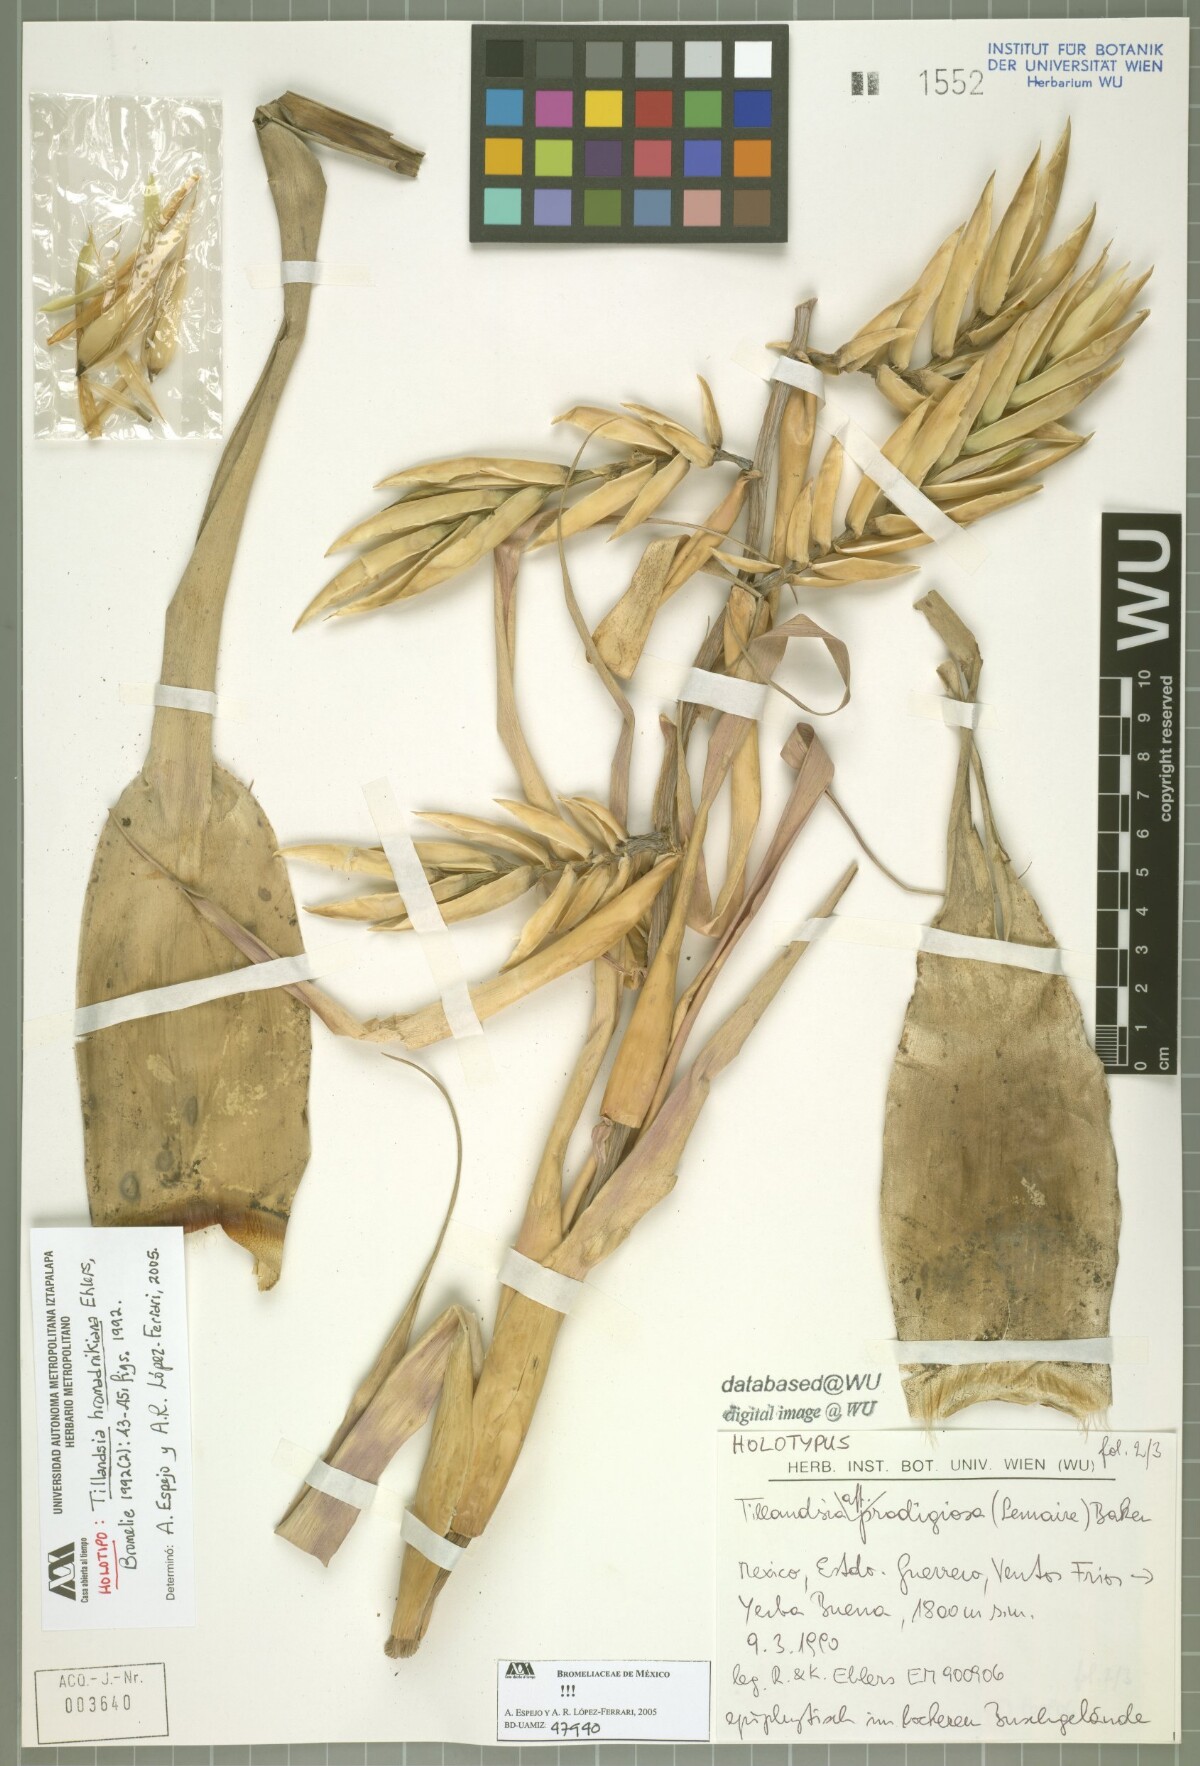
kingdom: Plantae
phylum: Tracheophyta
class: Liliopsida
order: Poales
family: Bromeliaceae
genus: Tillandsia
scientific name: Tillandsia prodigiosa
